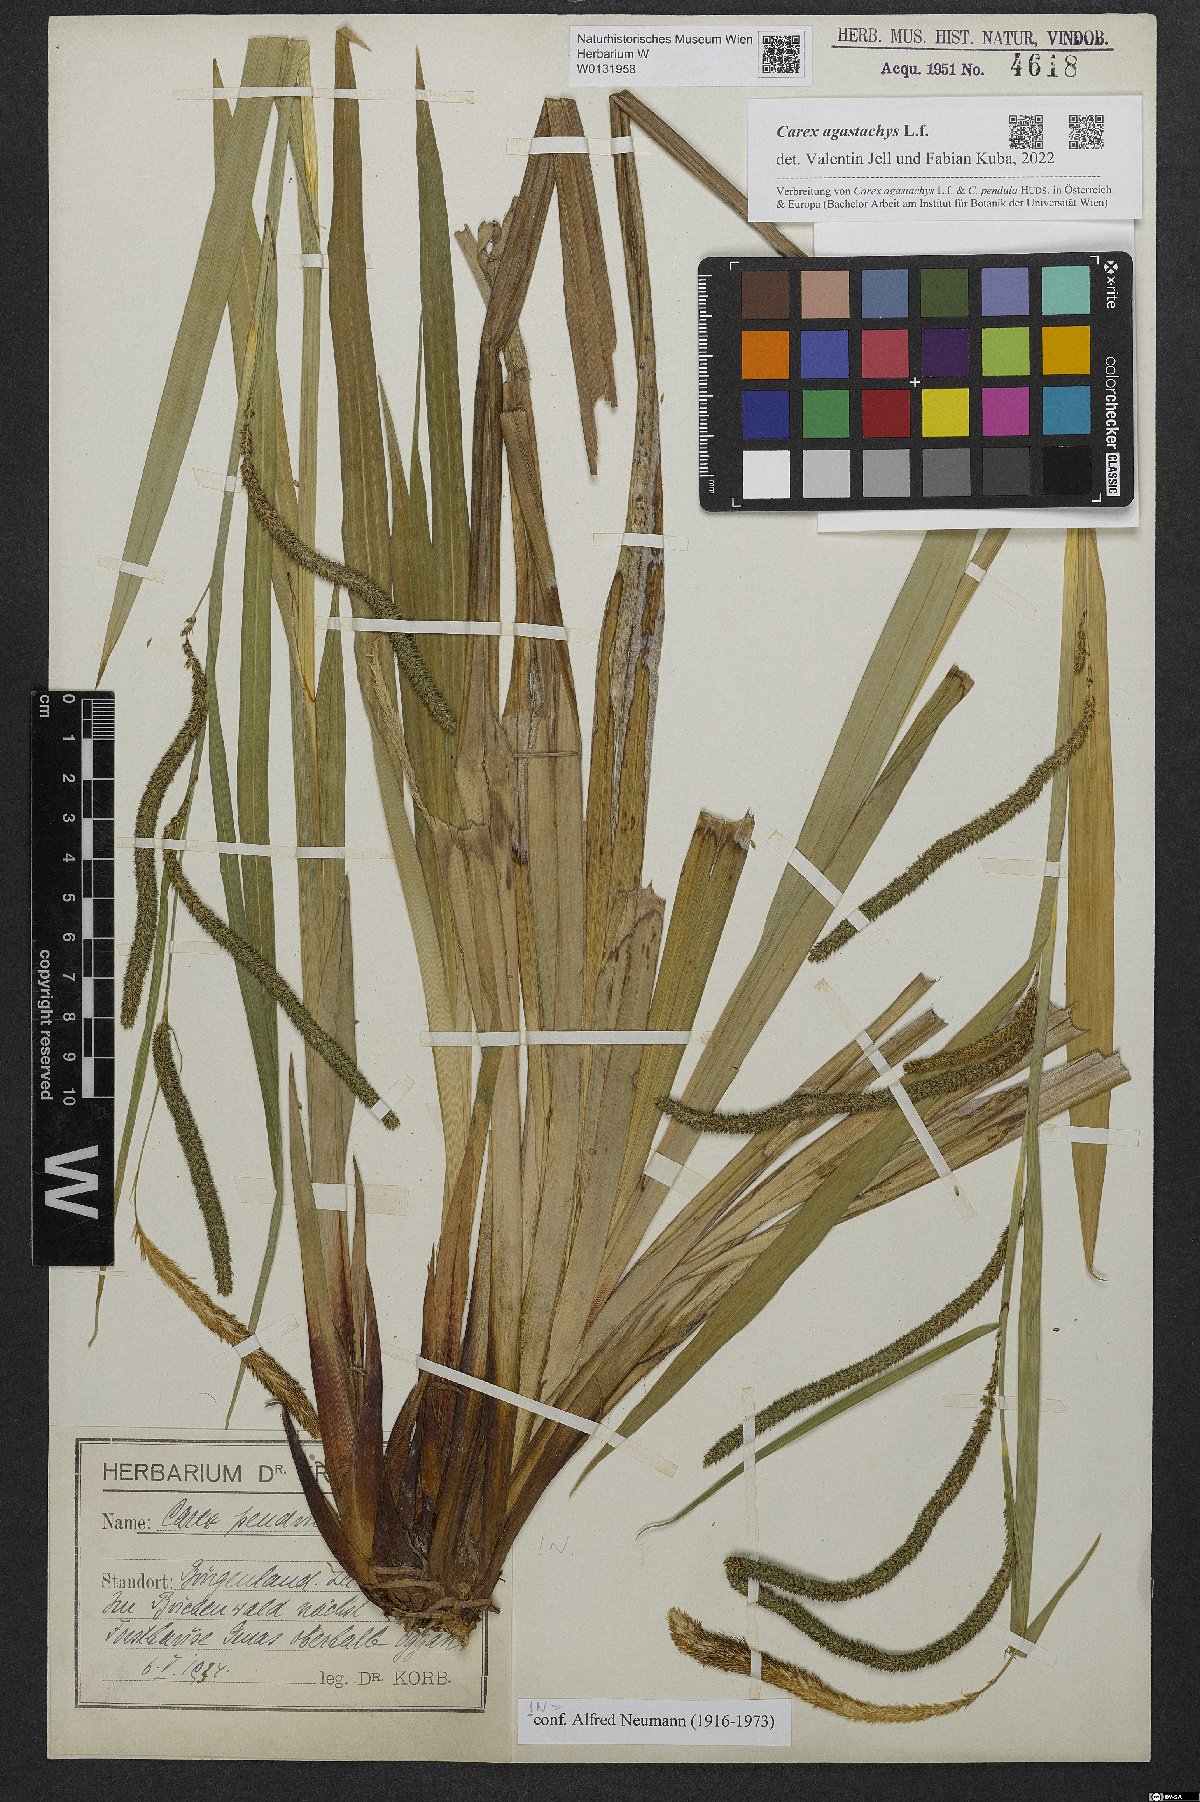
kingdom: Plantae
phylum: Tracheophyta
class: Liliopsida
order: Poales
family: Cyperaceae
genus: Carex
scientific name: Carex agastachys
